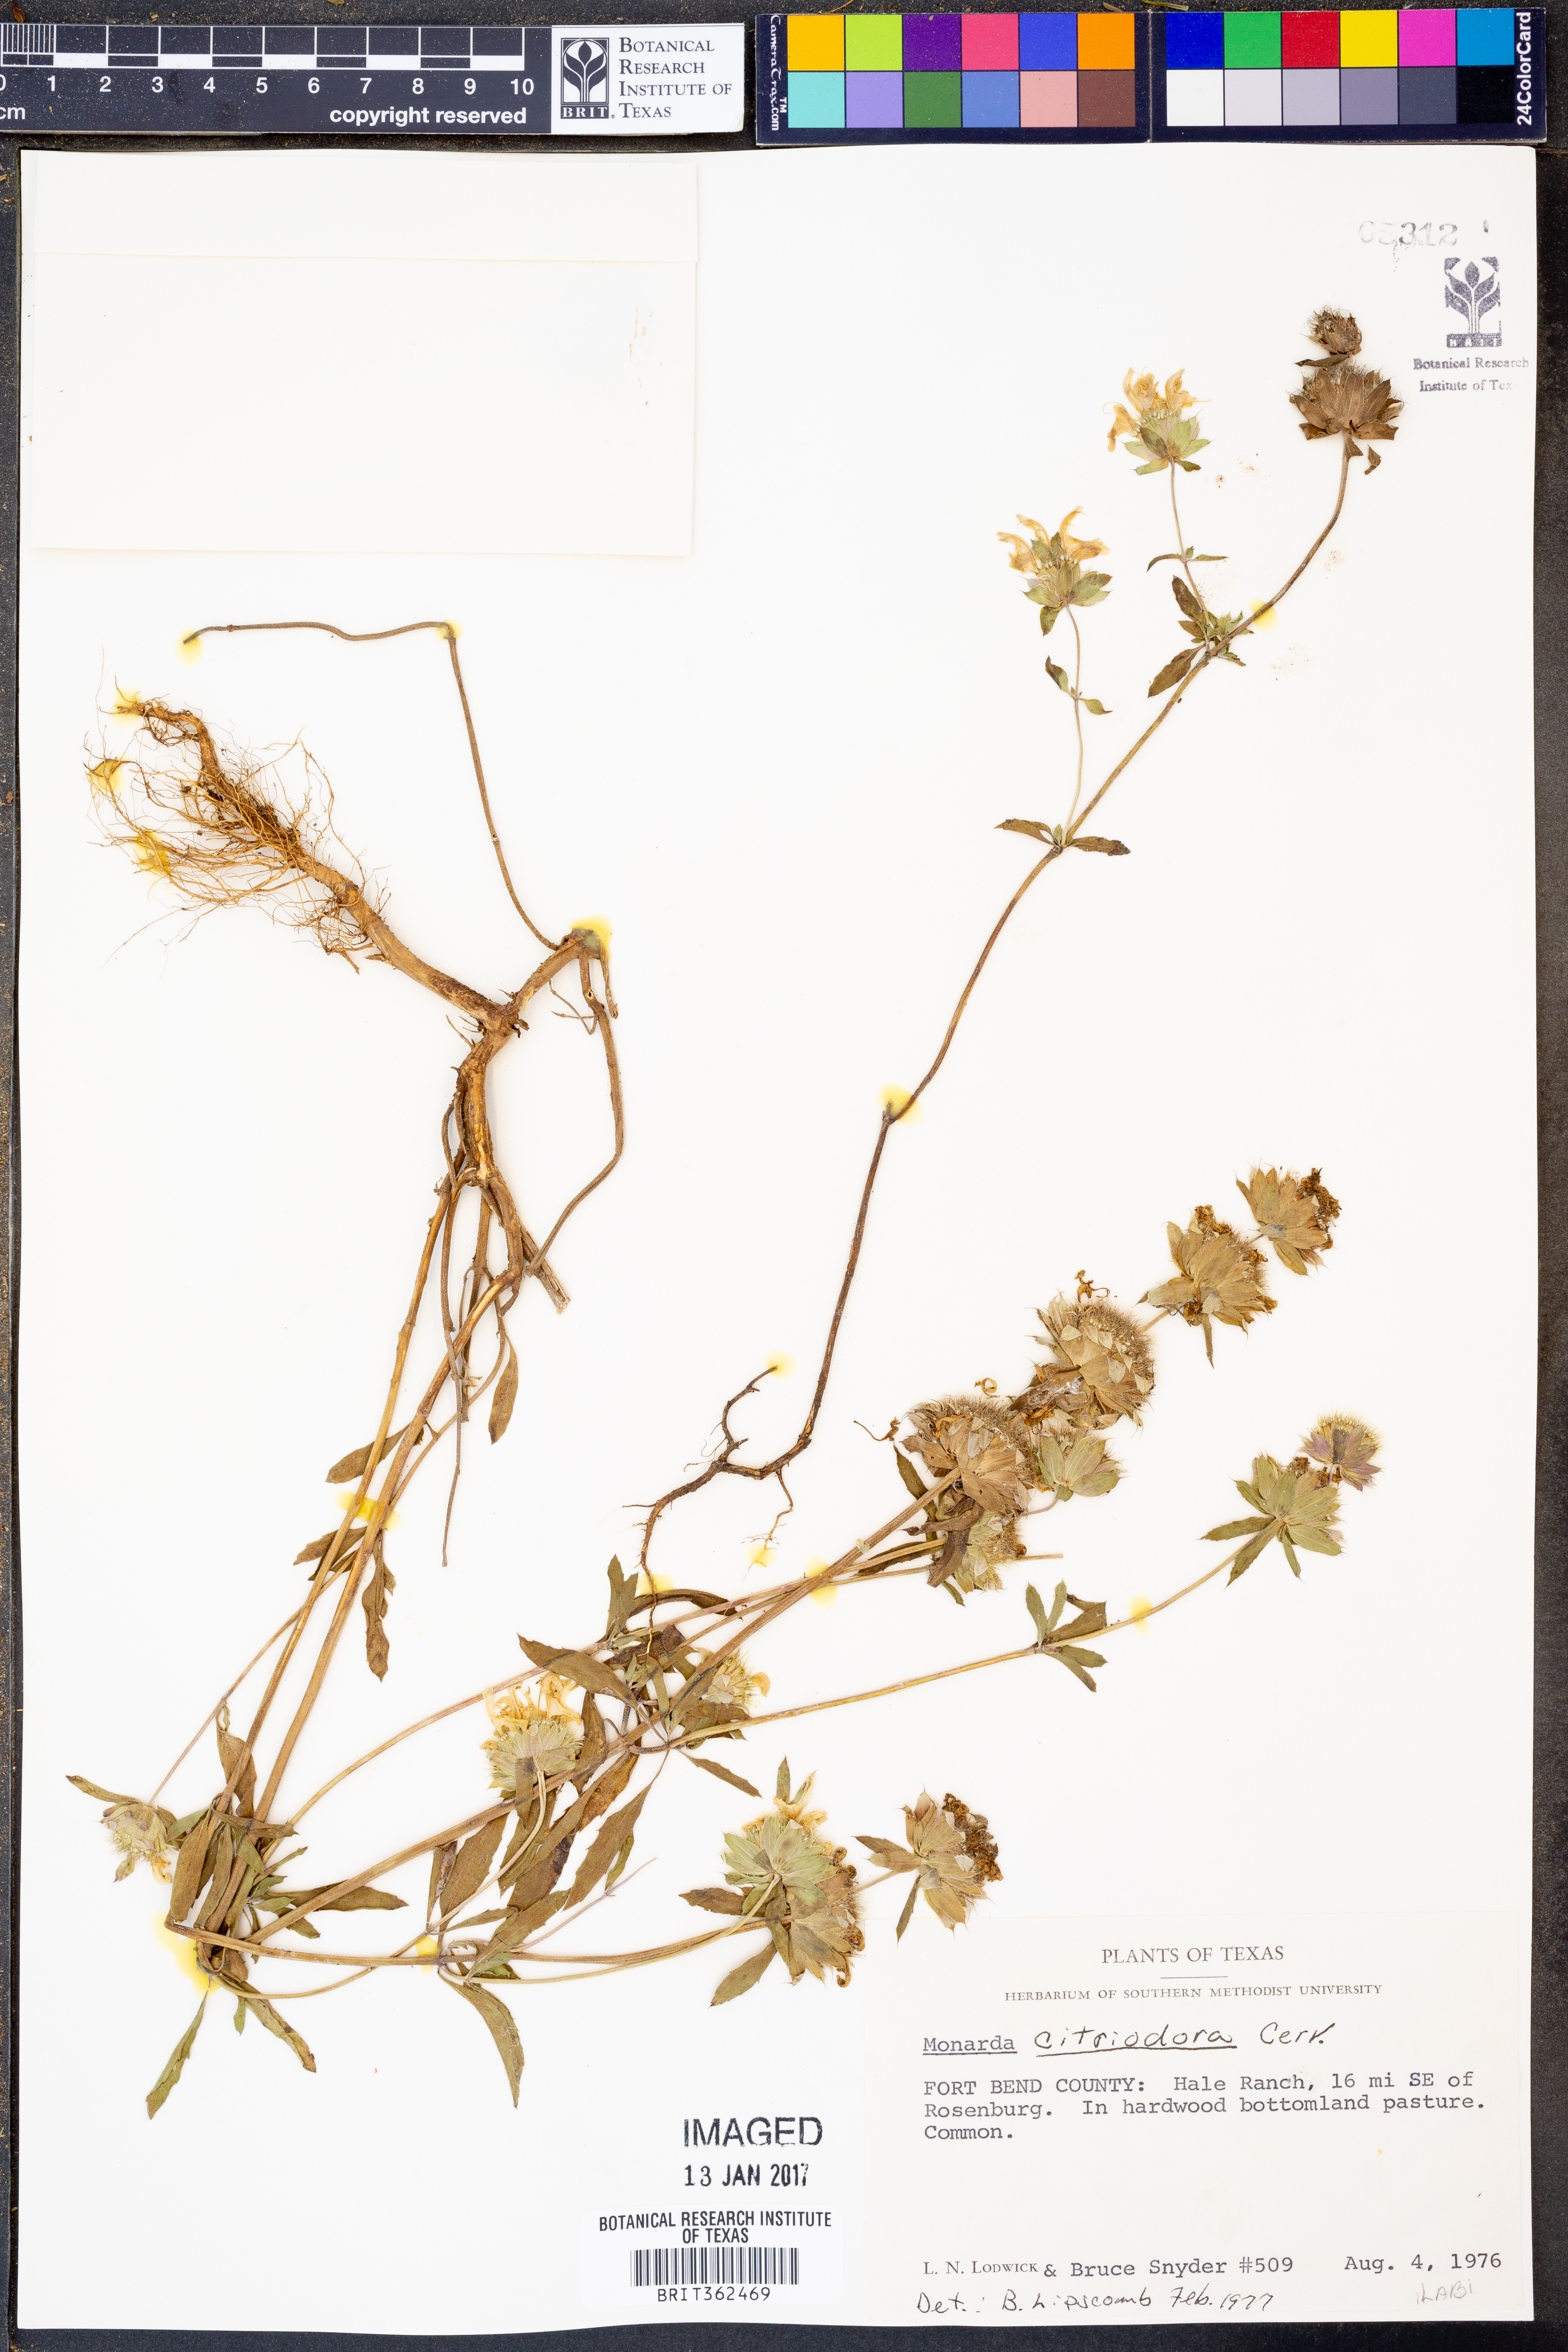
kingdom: Plantae
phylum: Tracheophyta
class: Magnoliopsida
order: Lamiales
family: Lamiaceae
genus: Monarda
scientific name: Monarda citriodora
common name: Lemon beebalm
